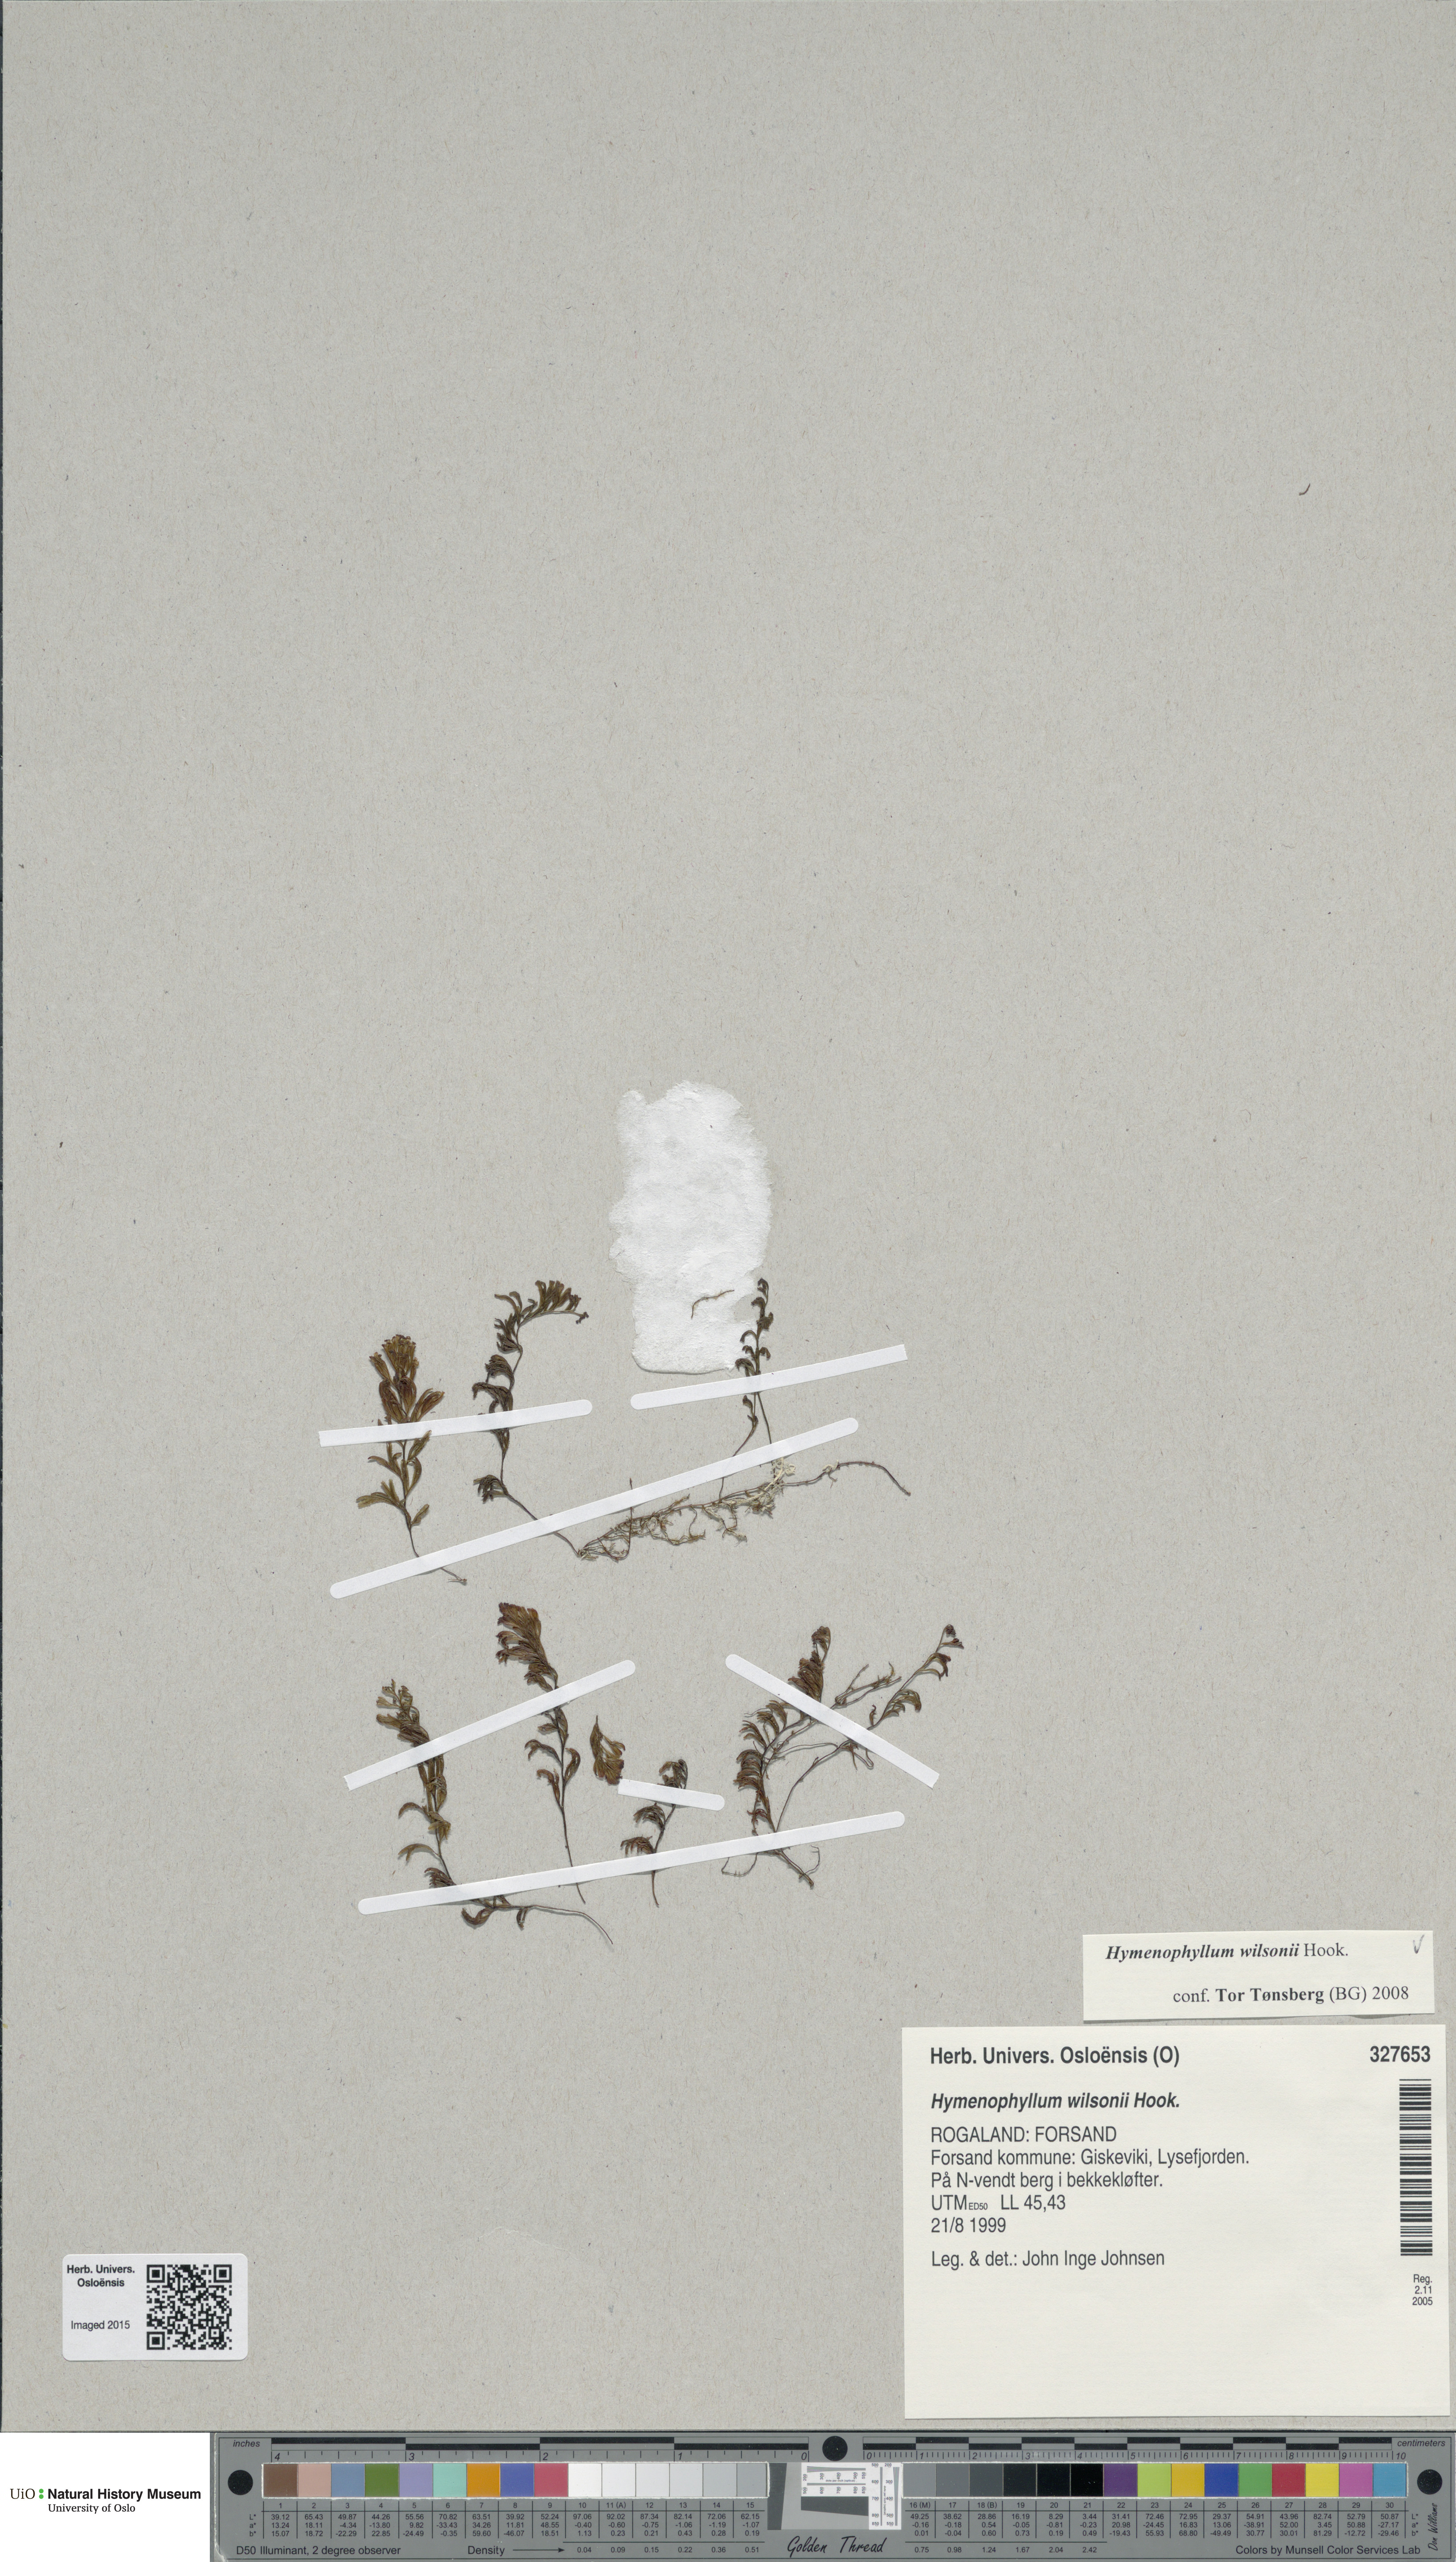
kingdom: Plantae
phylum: Tracheophyta
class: Polypodiopsida
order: Hymenophyllales
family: Hymenophyllaceae
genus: Hymenophyllum
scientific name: Hymenophyllum peltatum
